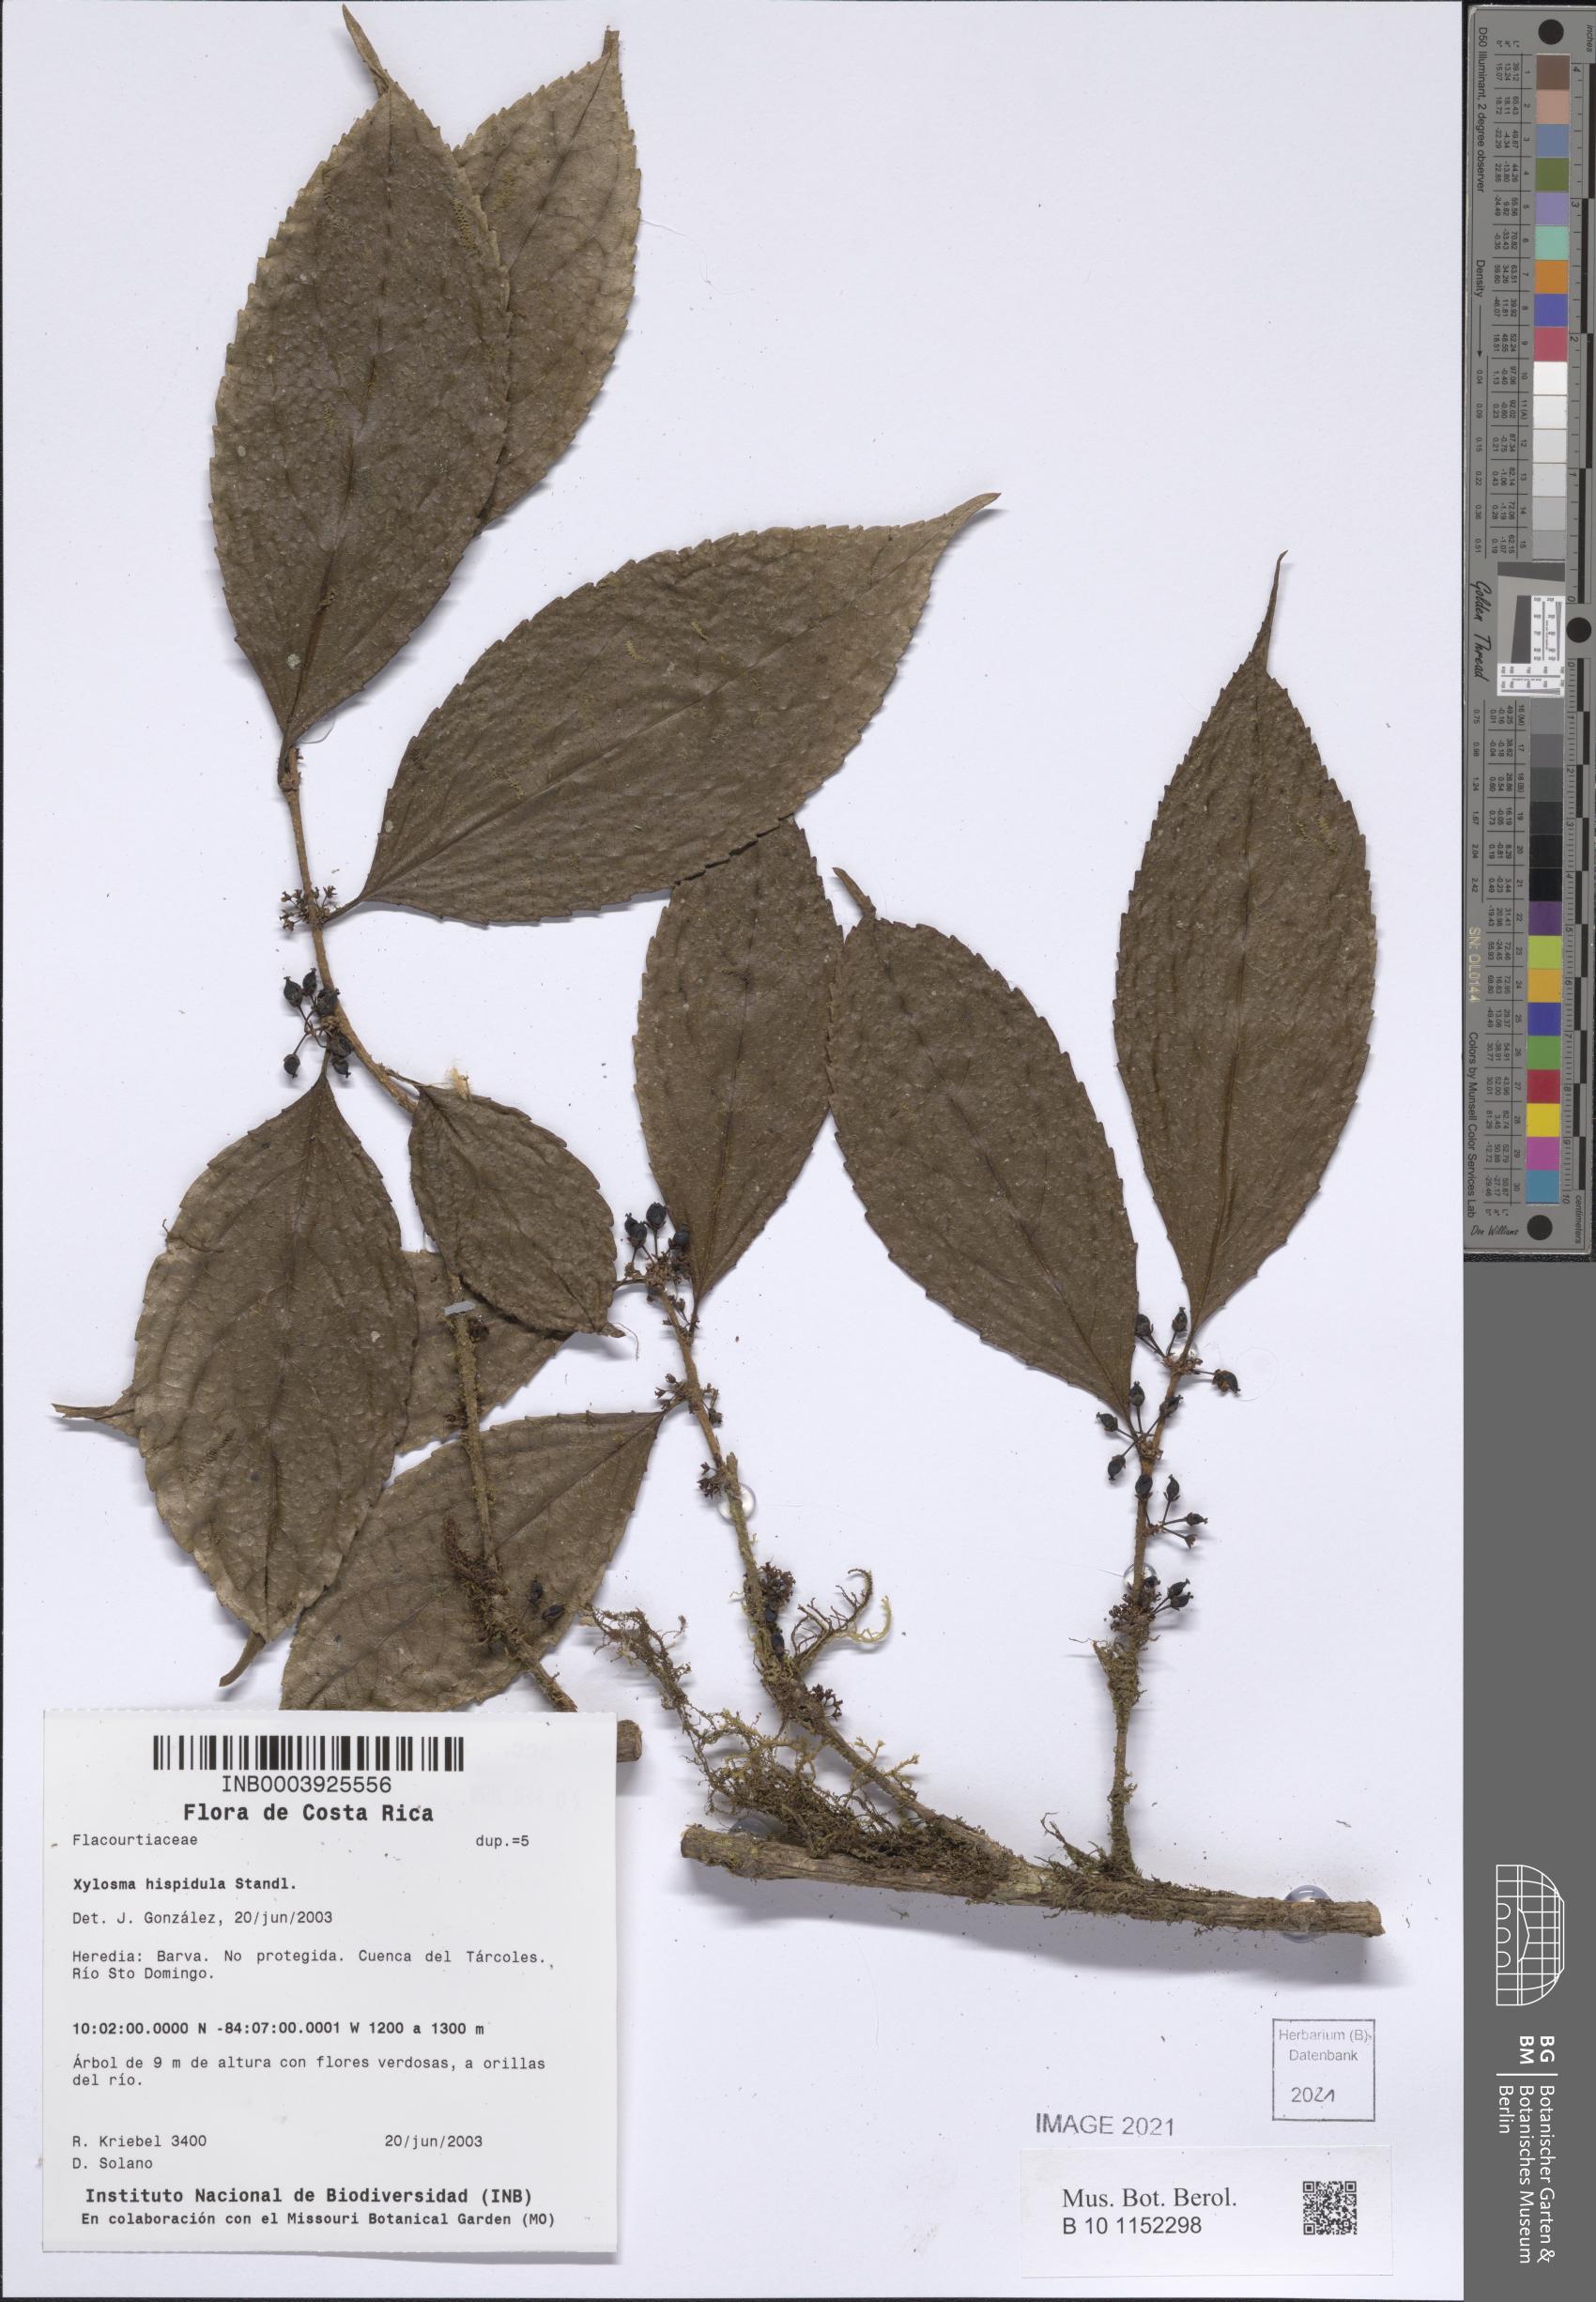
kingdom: Plantae
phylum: Tracheophyta
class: Magnoliopsida
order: Malpighiales
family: Salicaceae
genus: Xylosma
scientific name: Xylosma hispidula
